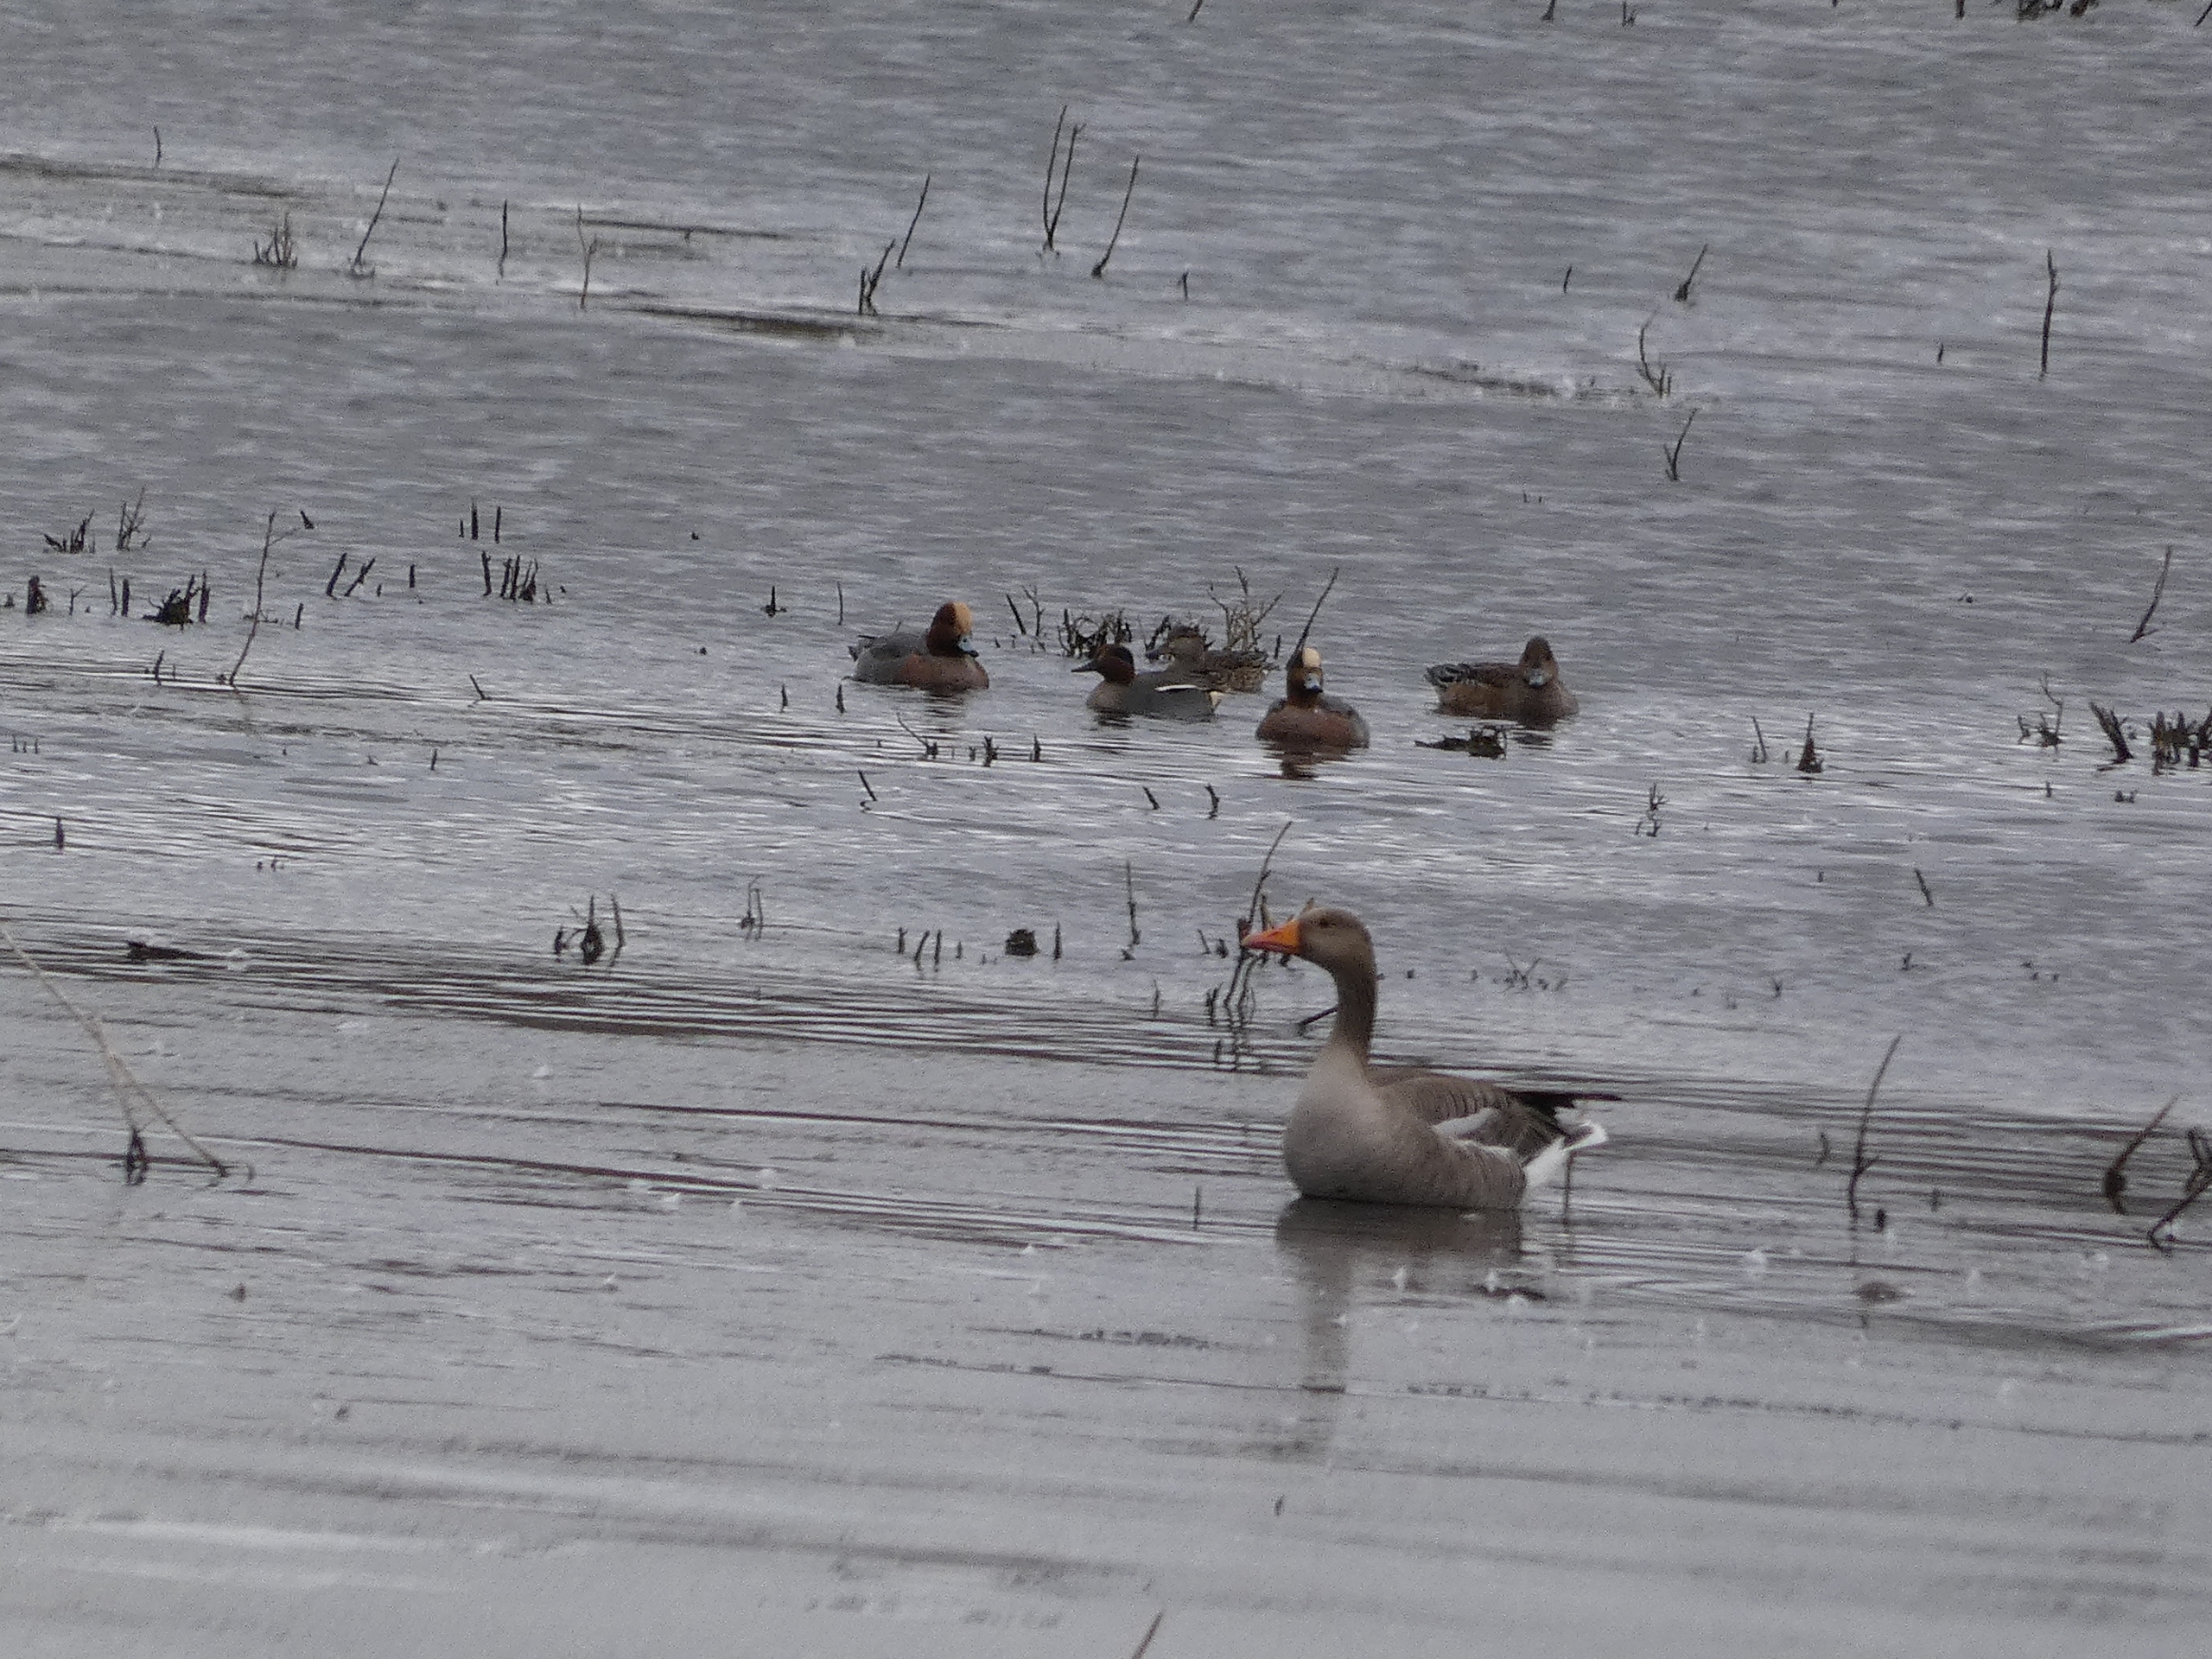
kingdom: Animalia
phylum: Chordata
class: Aves
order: Anseriformes
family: Anatidae
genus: Anas
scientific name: Anas crecca
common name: Krikand
